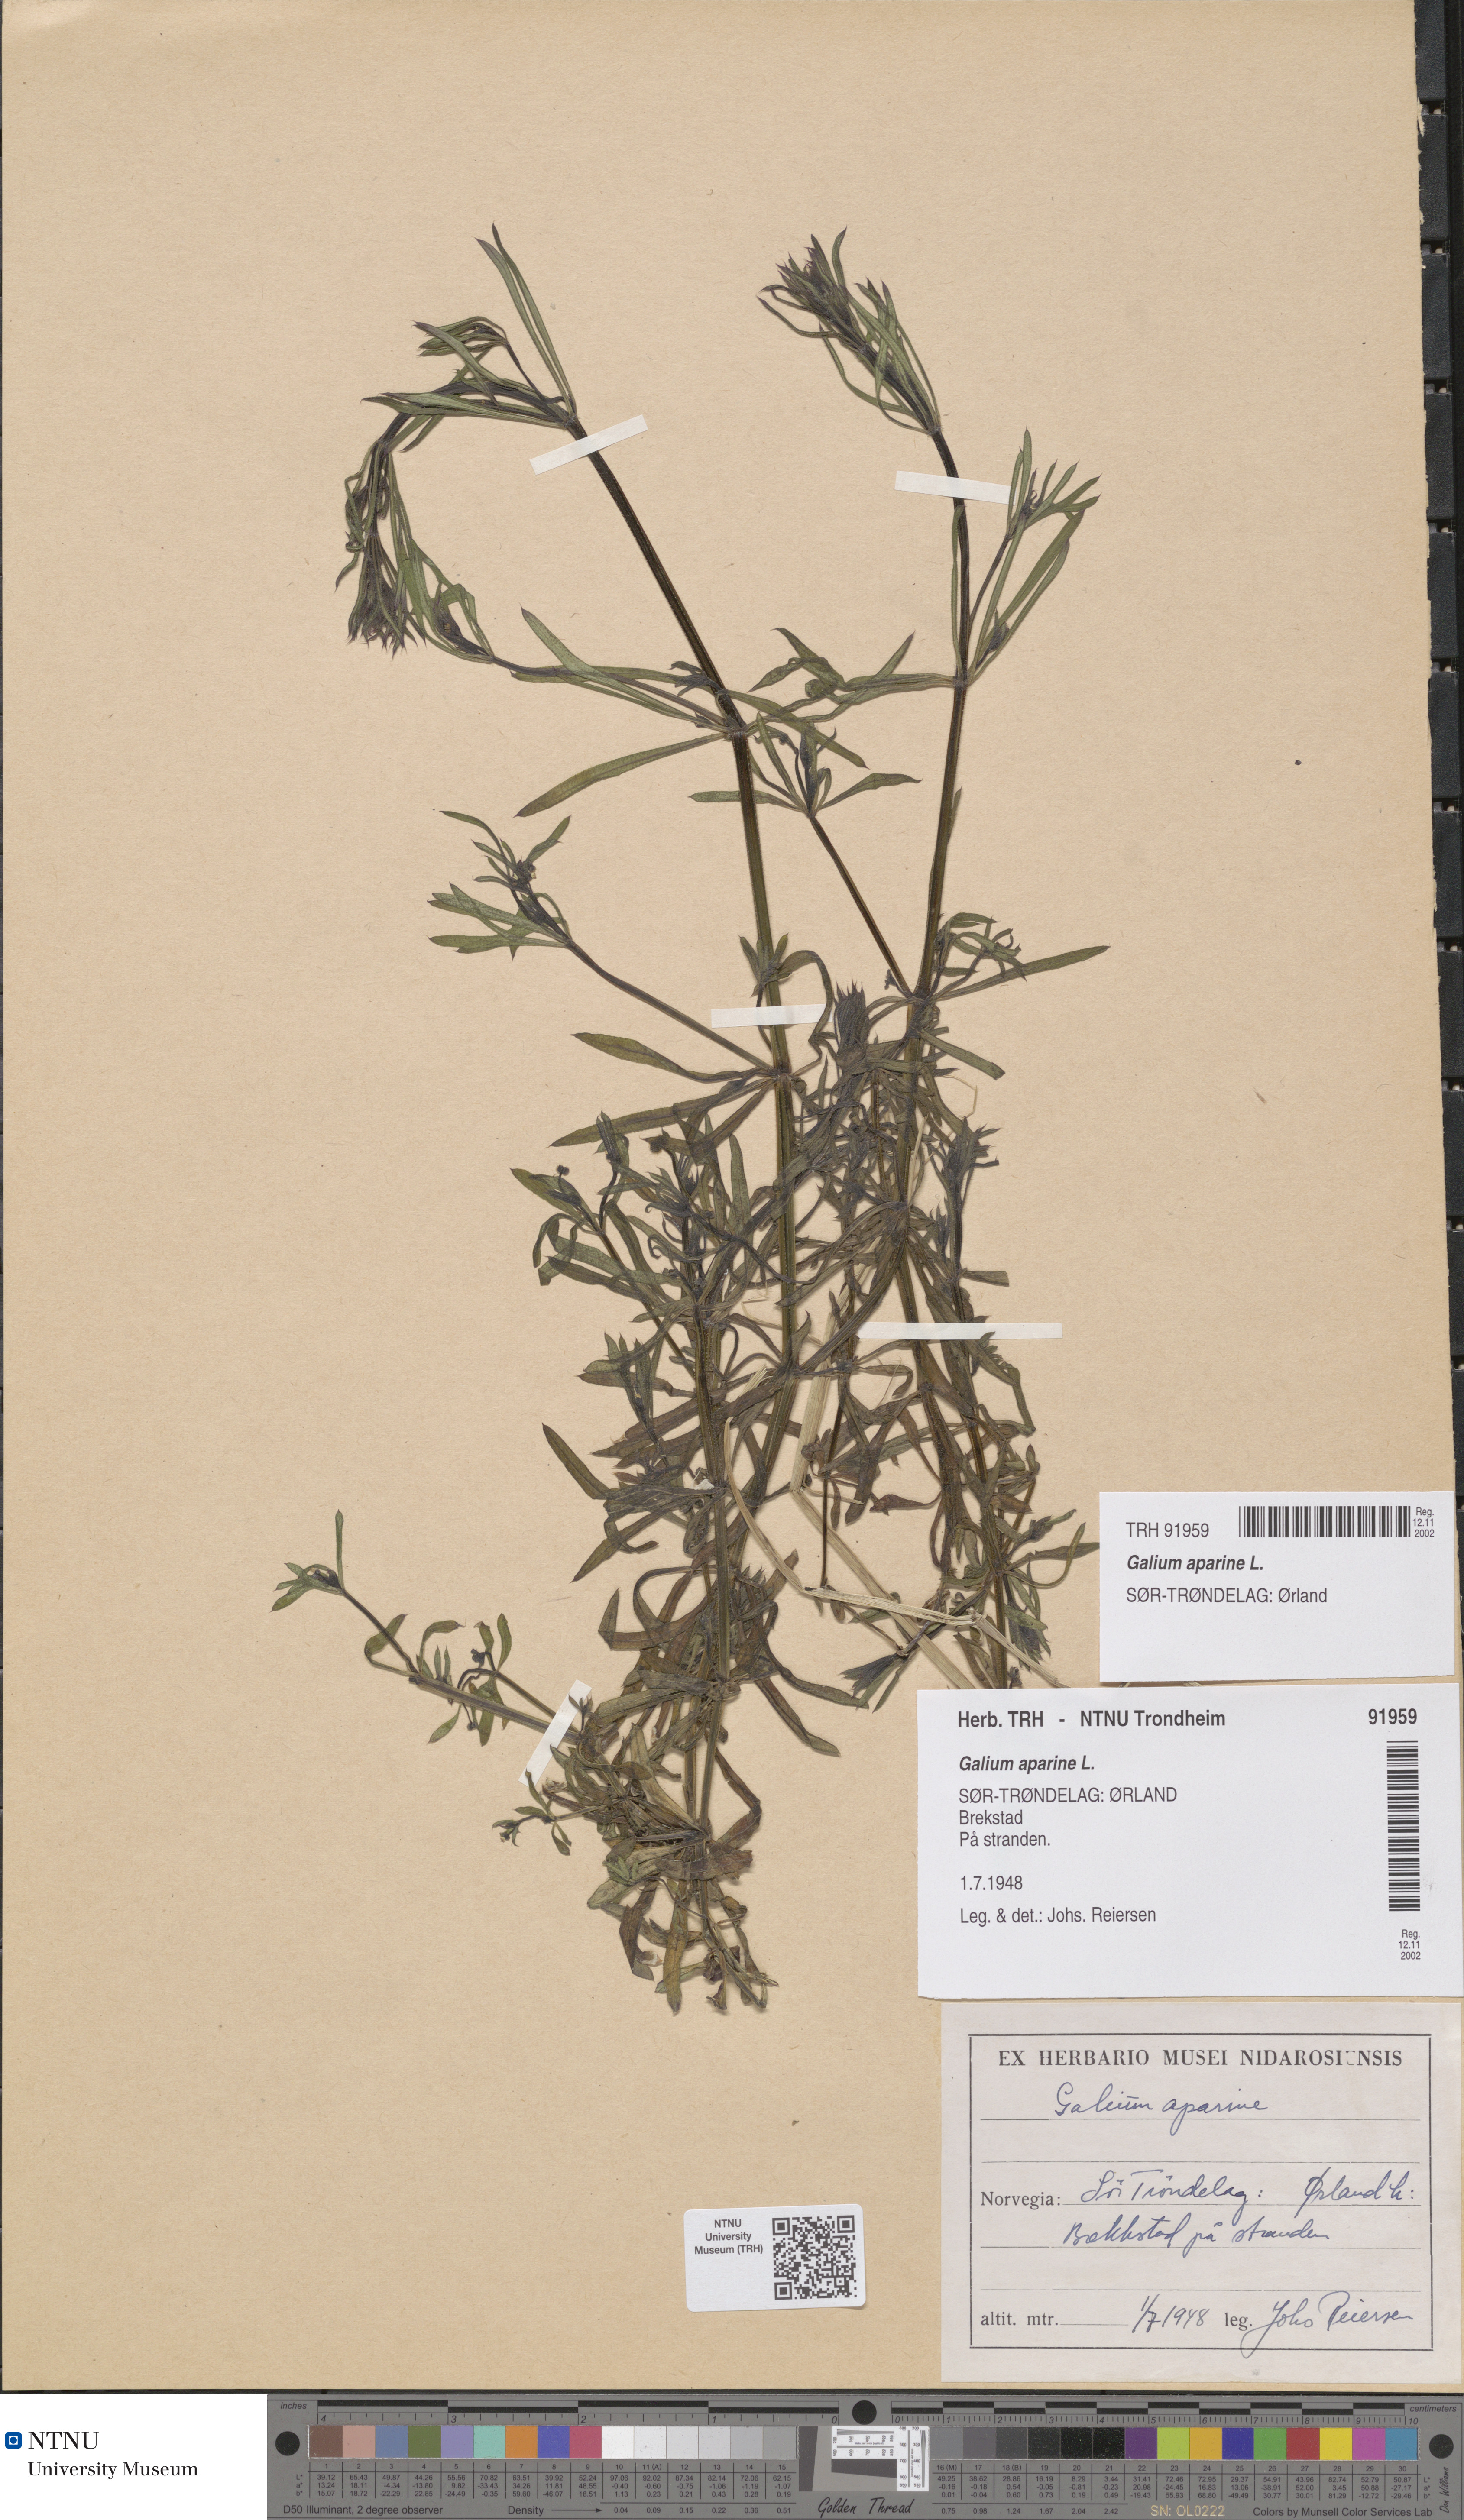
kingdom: Plantae
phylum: Tracheophyta
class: Magnoliopsida
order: Gentianales
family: Rubiaceae
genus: Galium
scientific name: Galium aparine
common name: Cleavers
